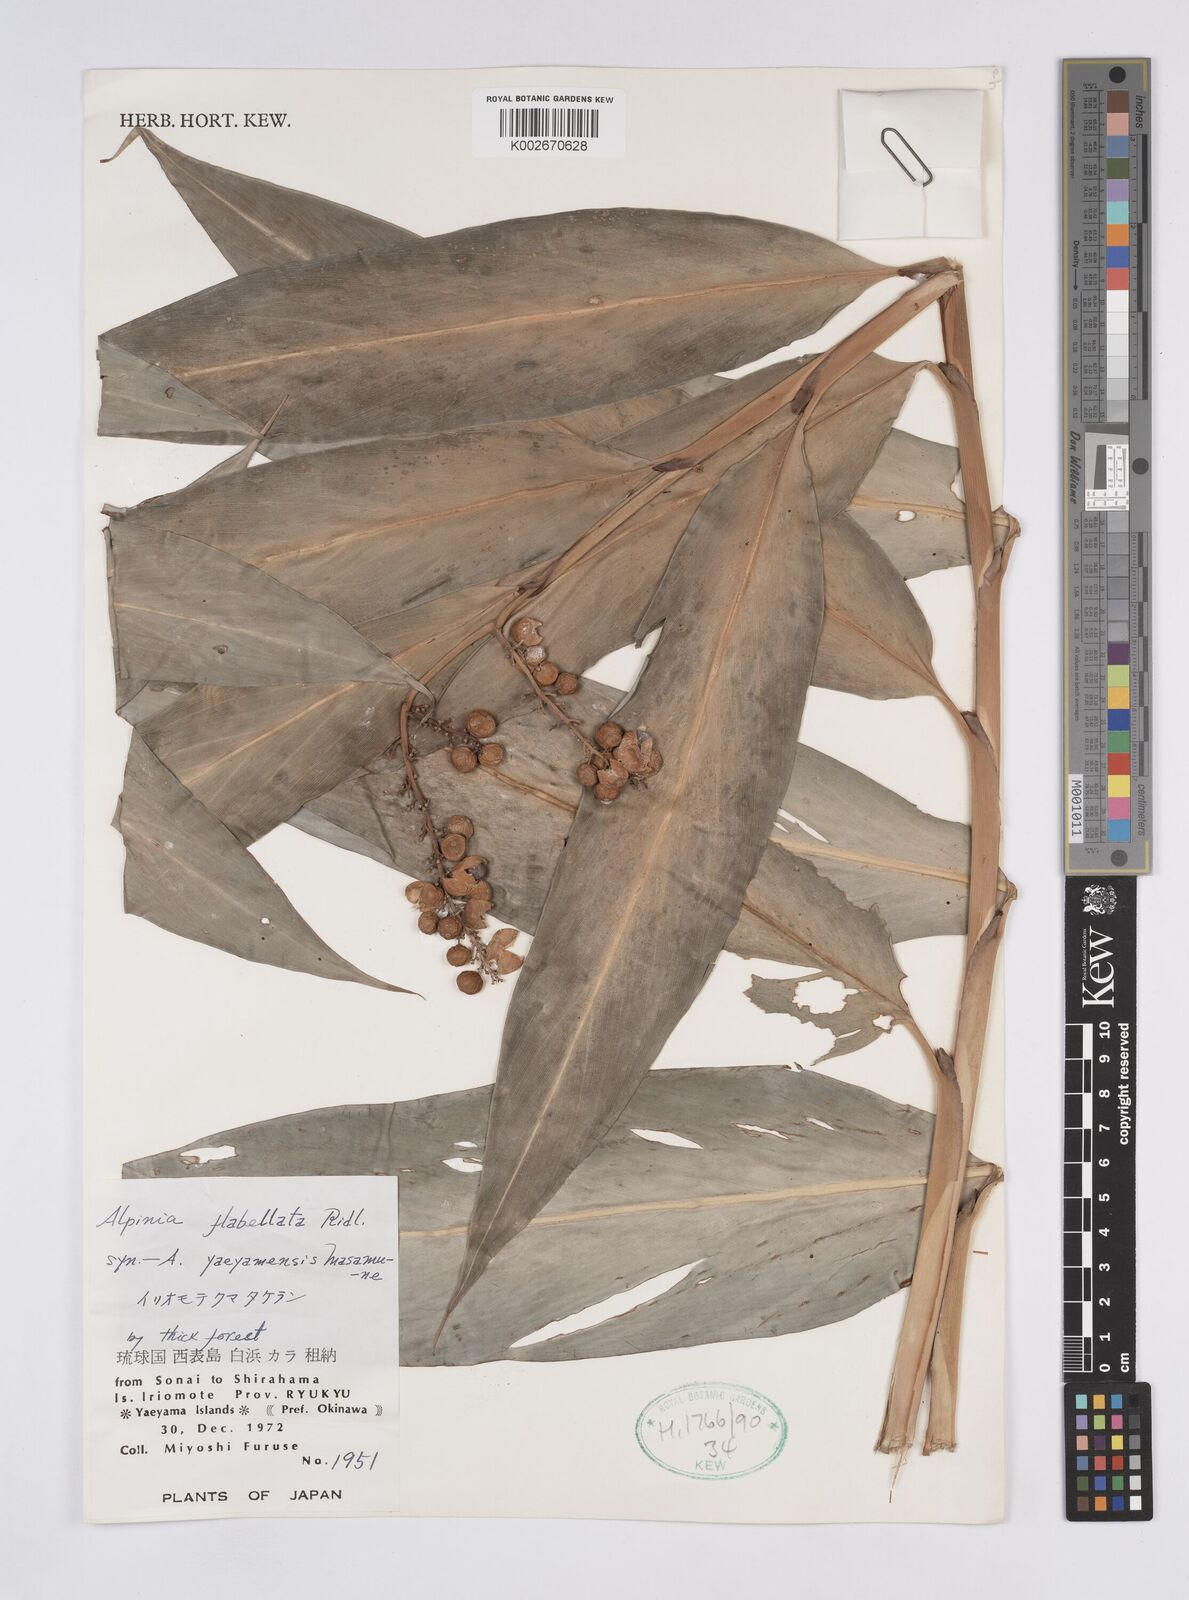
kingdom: Plantae
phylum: Tracheophyta
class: Liliopsida
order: Zingiberales
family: Zingiberaceae
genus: Alpinia
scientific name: Alpinia flabellata
